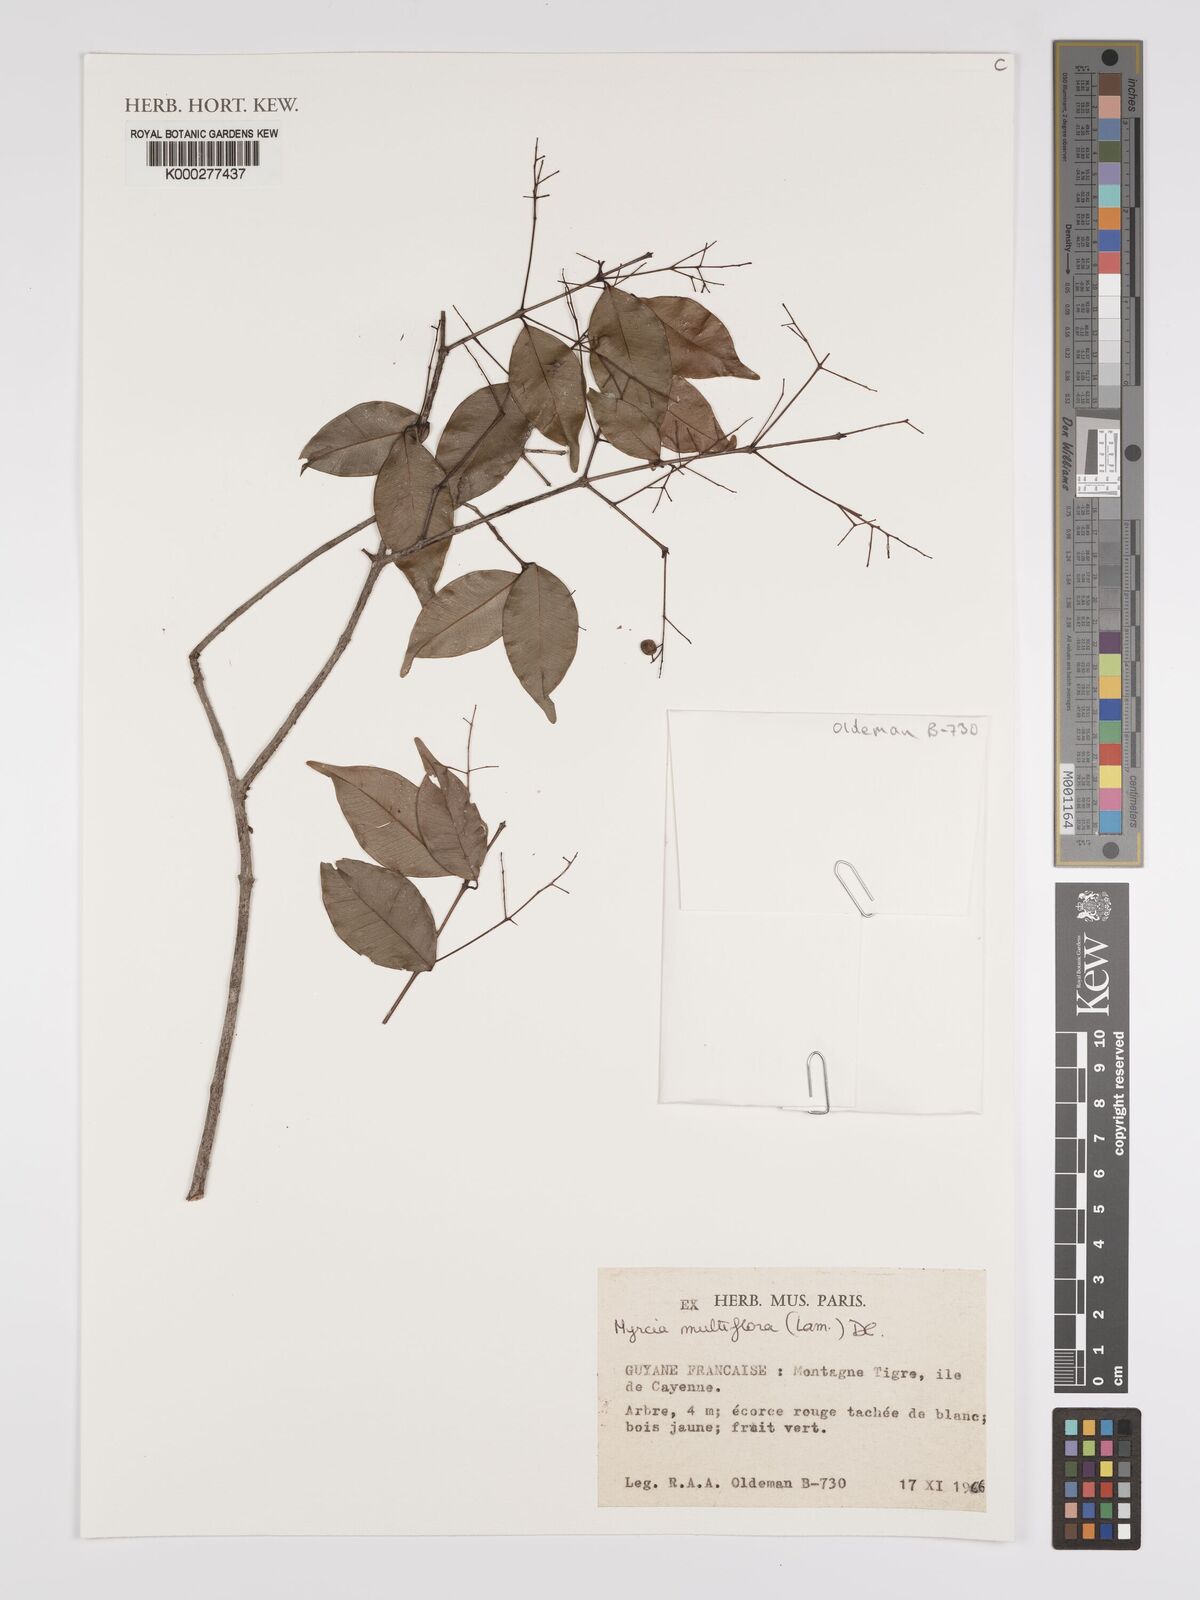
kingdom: Plantae
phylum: Tracheophyta
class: Magnoliopsida
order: Myrtales
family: Myrtaceae
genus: Myrcia
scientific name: Myrcia multiflora
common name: Pedra hume
